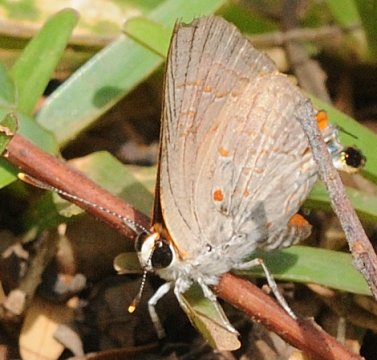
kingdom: Animalia
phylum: Arthropoda
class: Insecta
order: Lepidoptera
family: Lycaenidae
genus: Deudorix
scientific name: Deudorix dinochares
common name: Apricot Playboy
